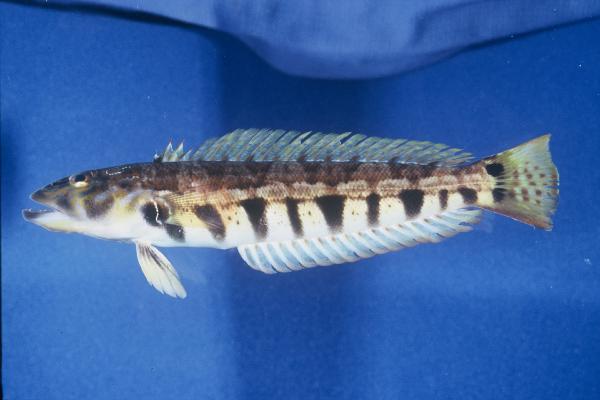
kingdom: Animalia
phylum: Chordata
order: Perciformes
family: Pinguipedidae
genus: Parapercis
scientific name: Parapercis robinsoni
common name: Smallscale sandsmelt
